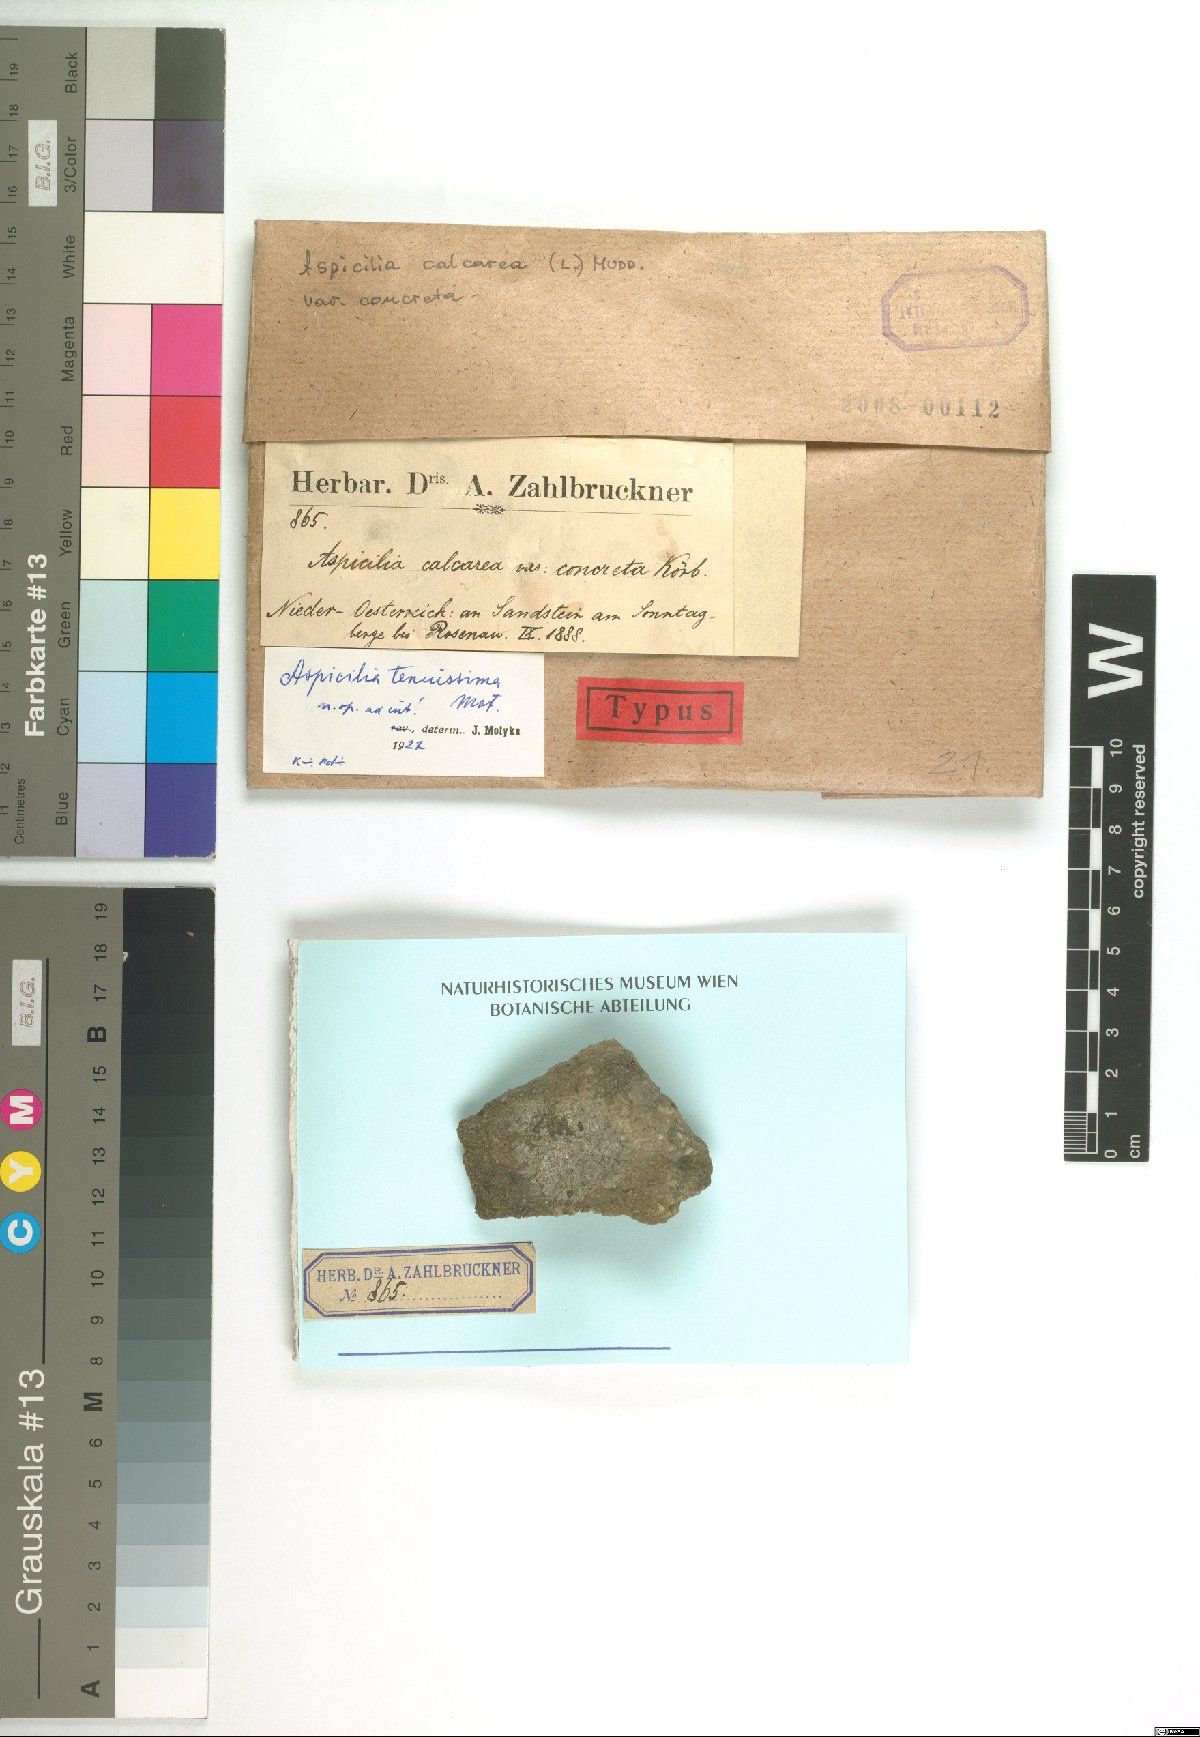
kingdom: Fungi
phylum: Ascomycota
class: Lecanoromycetes
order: Hymeneliales
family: Hymeneliaceae
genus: Aspicilia
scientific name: Aspicilia
